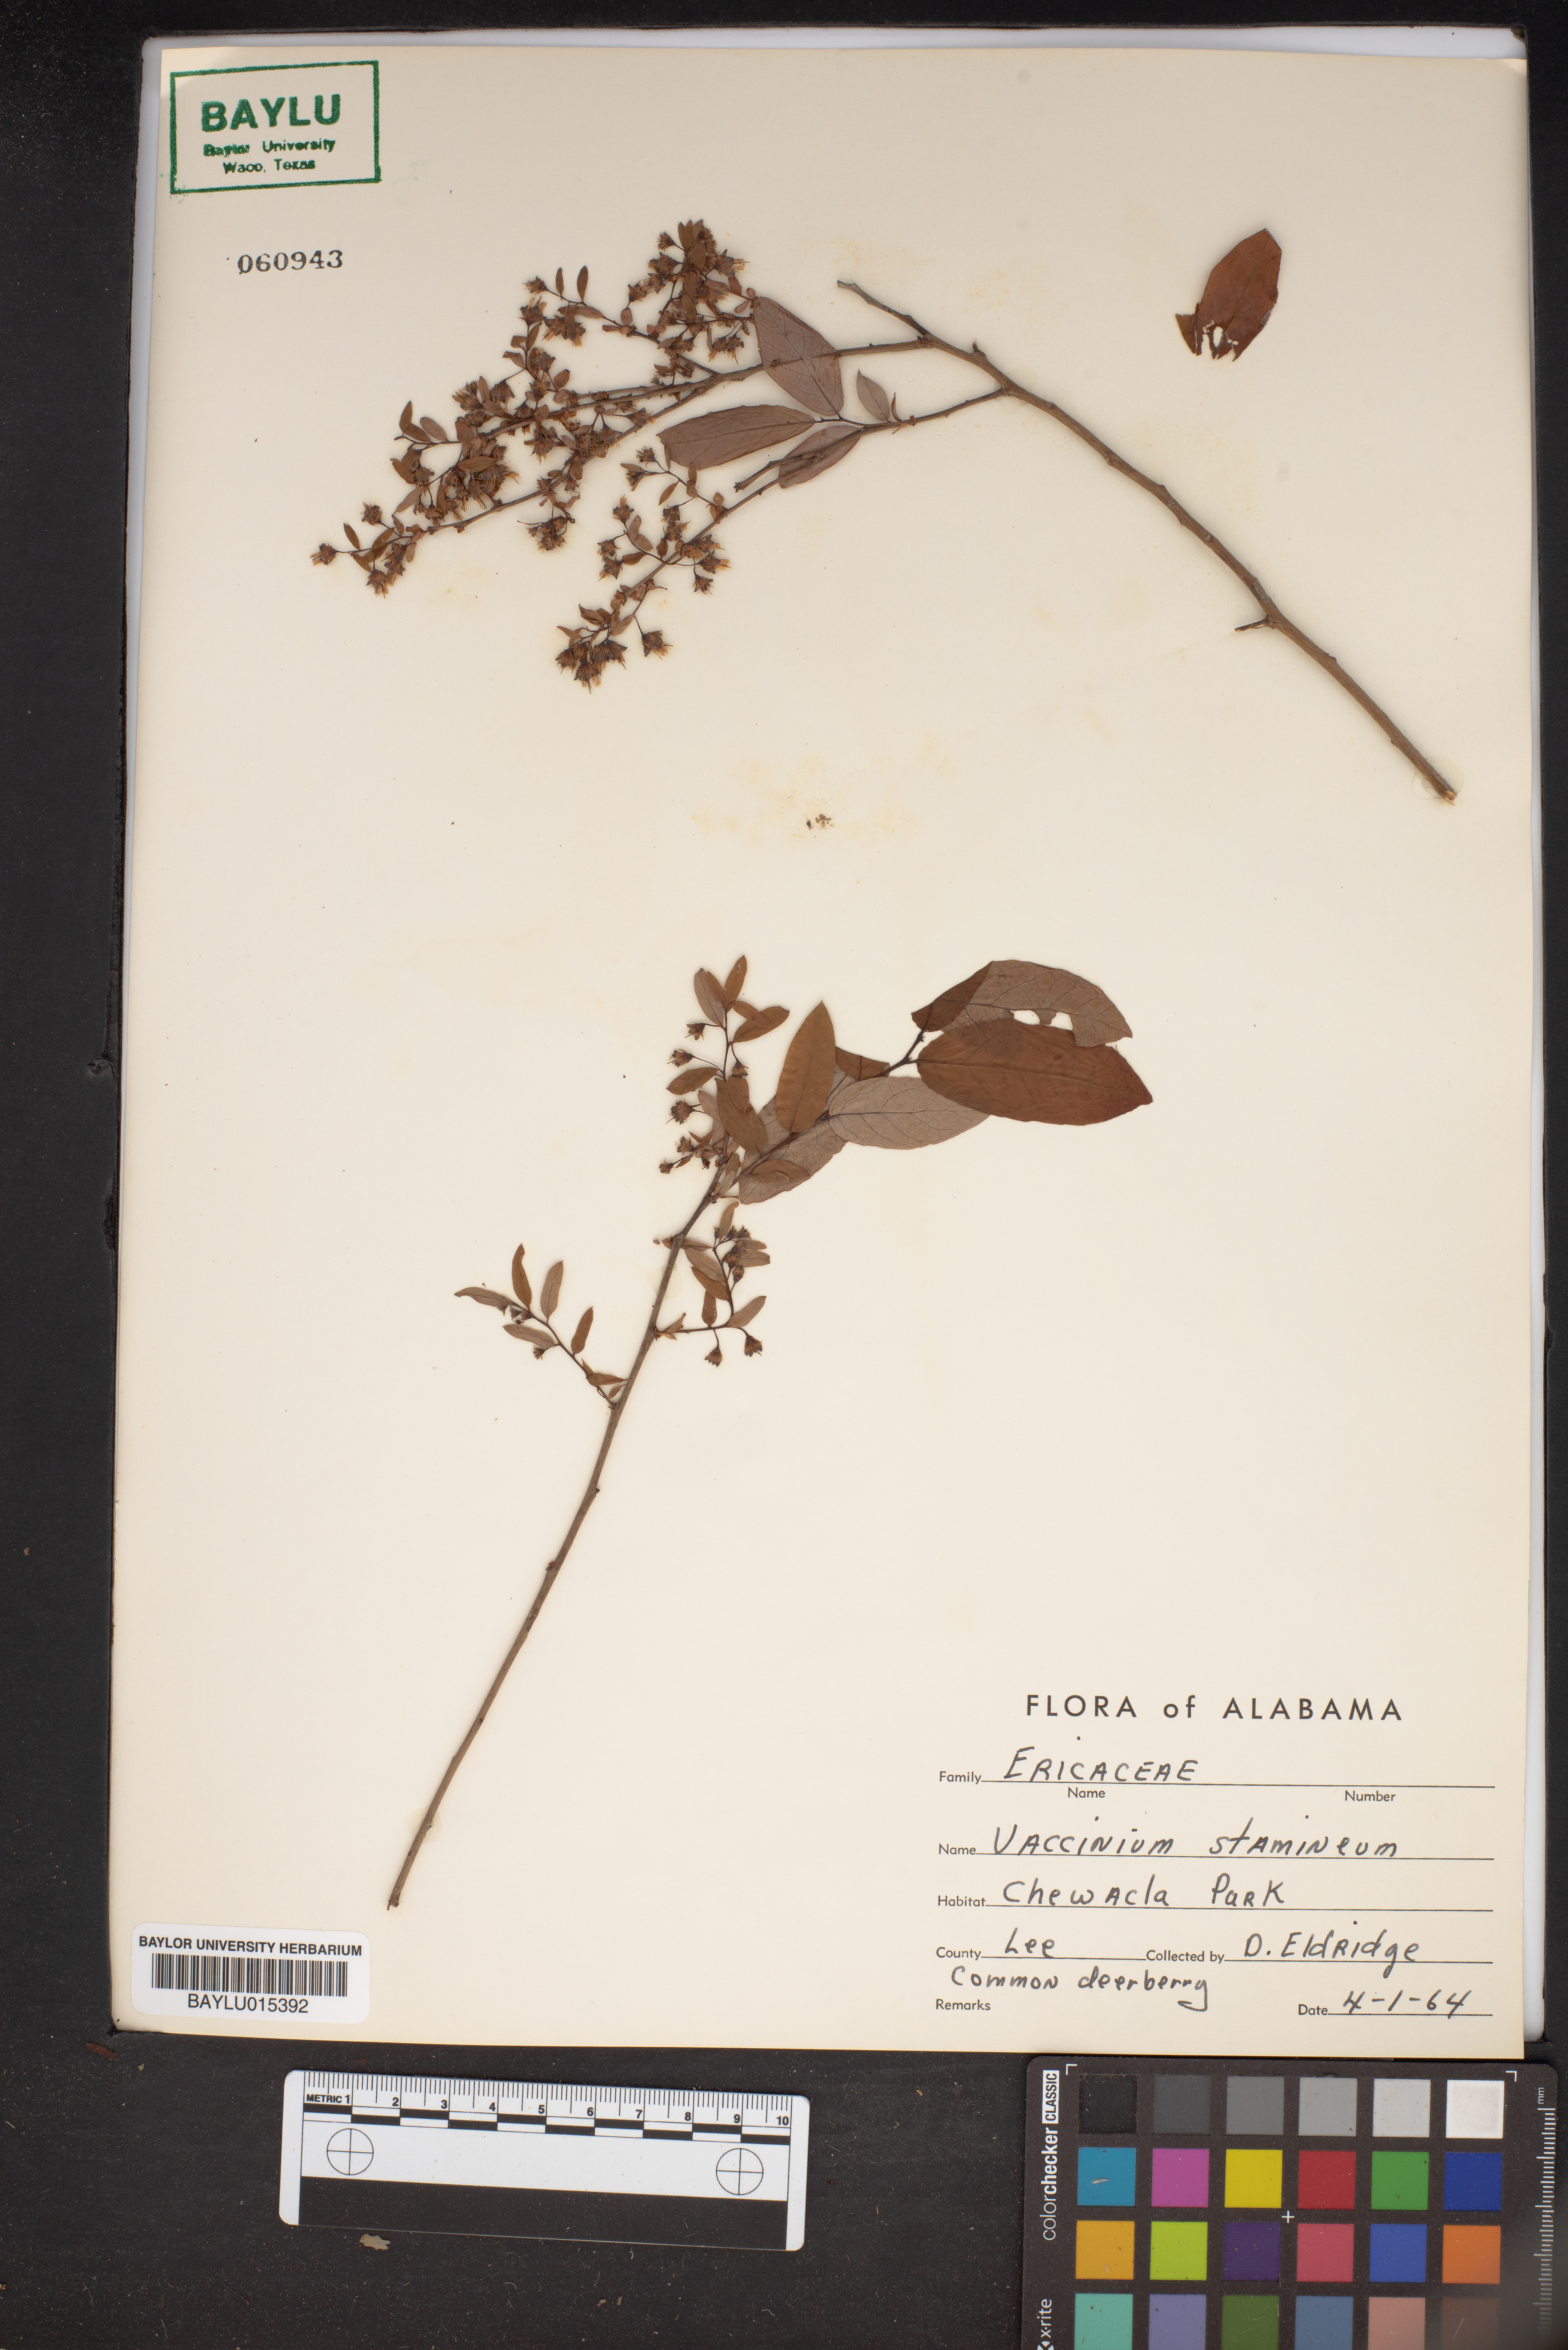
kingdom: Plantae
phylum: Tracheophyta
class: Magnoliopsida
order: Ericales
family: Ericaceae
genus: Vaccinium
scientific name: Vaccinium stamineum
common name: Deerberry
